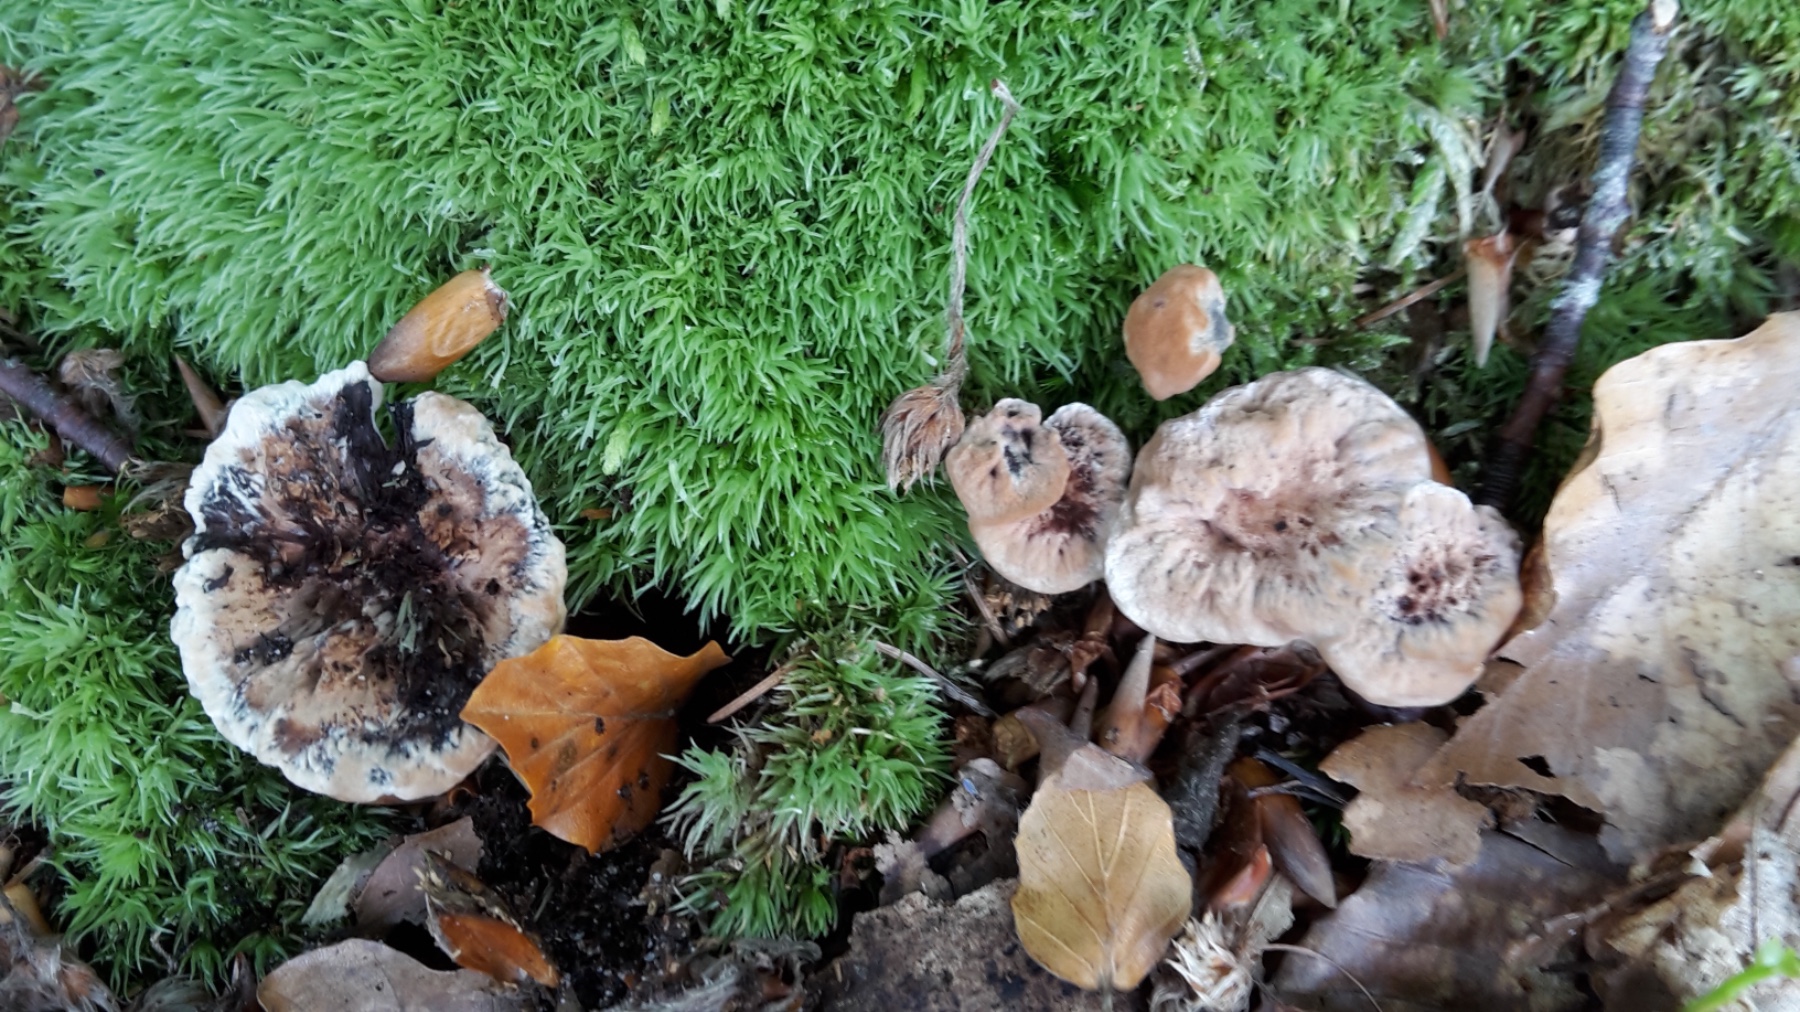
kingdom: Fungi
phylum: Basidiomycota
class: Agaricomycetes
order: Thelephorales
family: Bankeraceae
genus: Hydnellum
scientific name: Hydnellum concrescens
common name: bæltet korkpigsvamp
